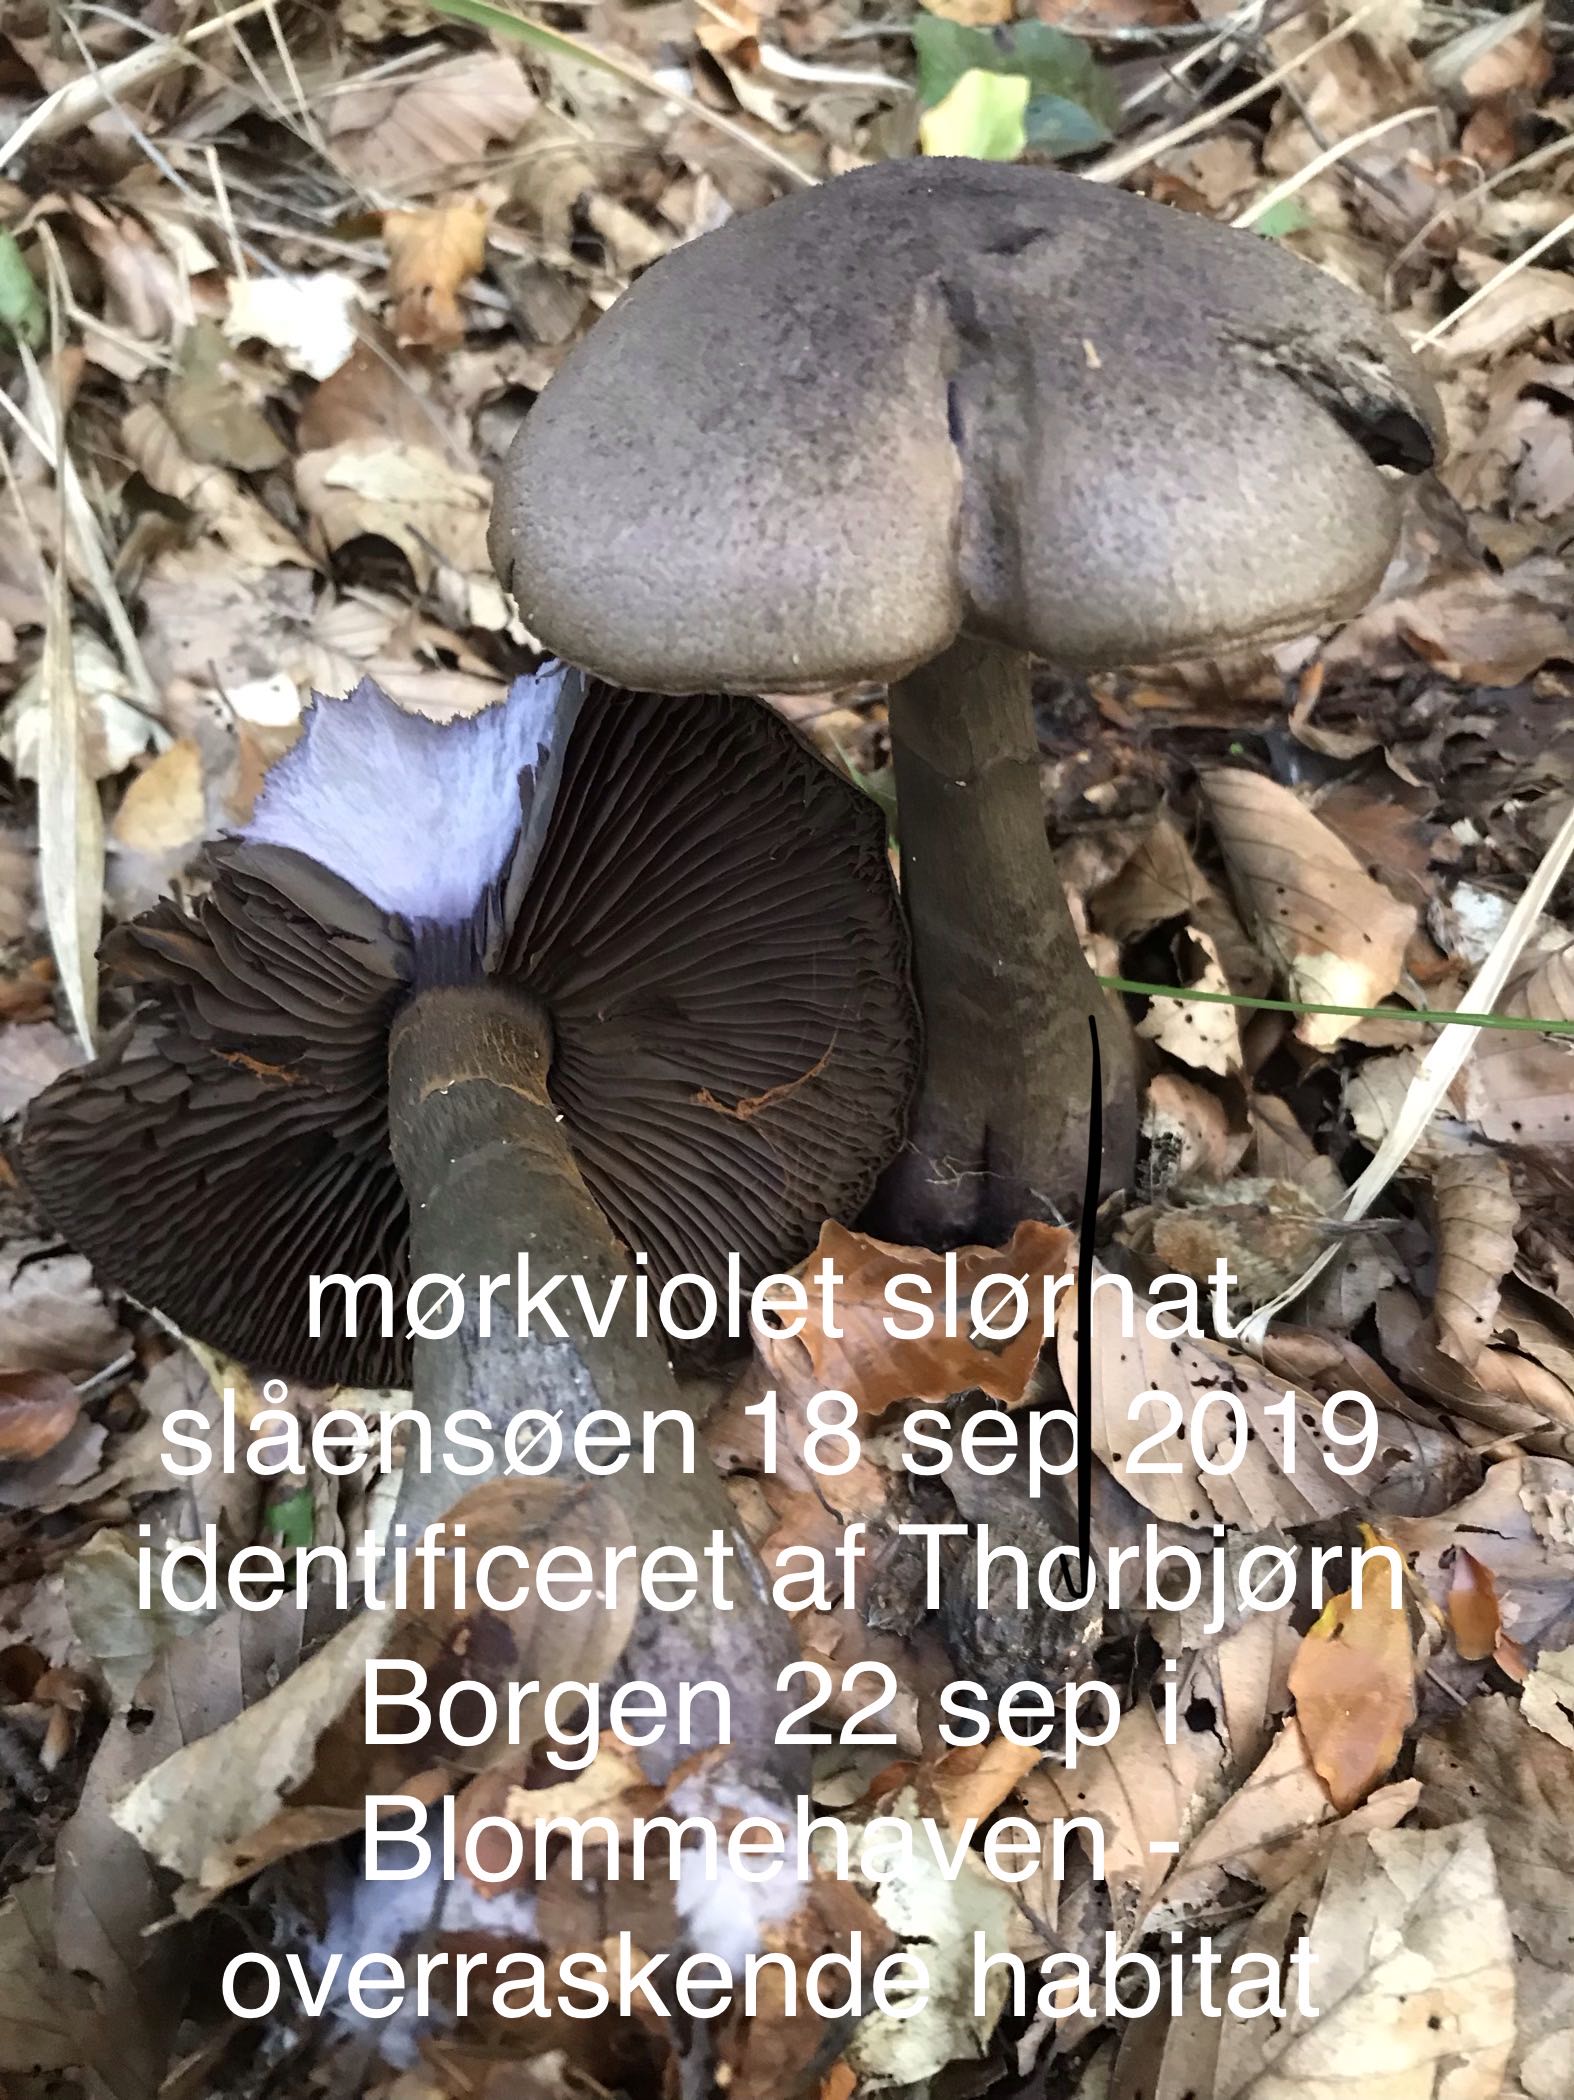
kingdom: Fungi
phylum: Basidiomycota
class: Agaricomycetes
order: Agaricales
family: Cortinariaceae
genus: Cortinarius
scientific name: Cortinarius violaceus
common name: mørkviolet slørhat
